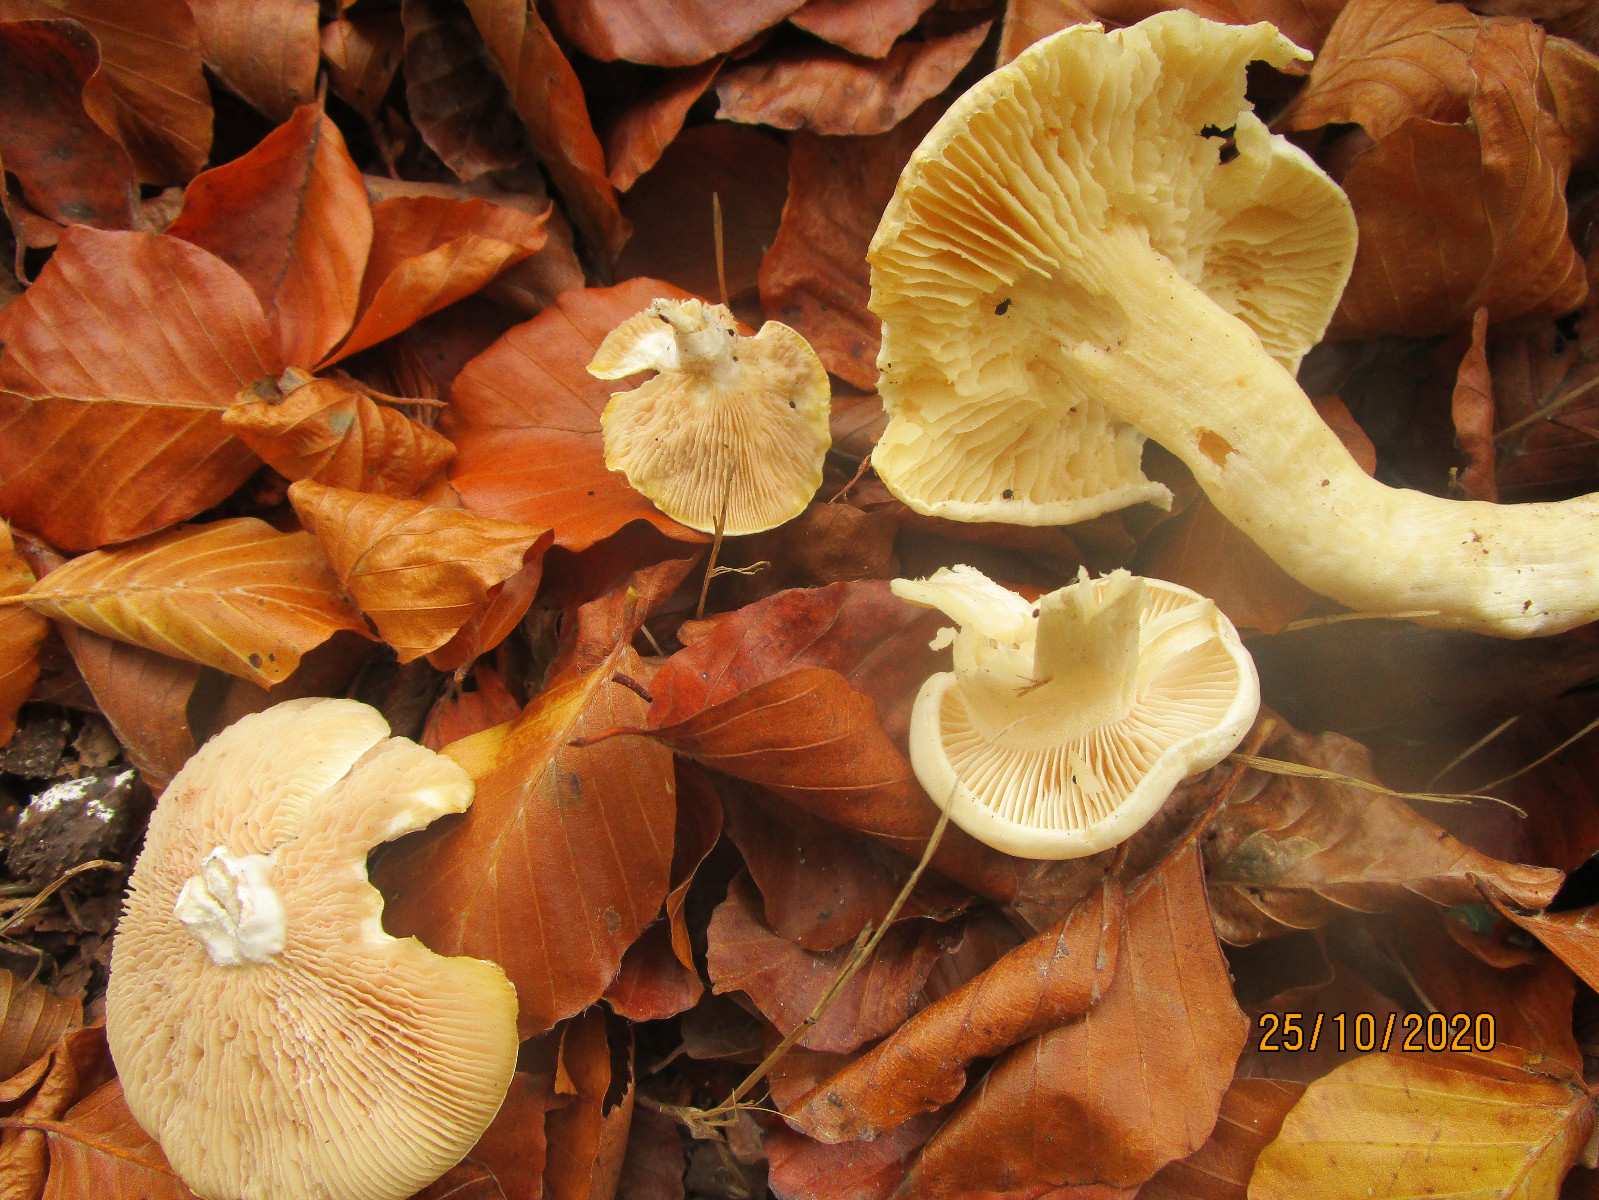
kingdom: Fungi
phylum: Basidiomycota
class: Agaricomycetes
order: Agaricales
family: Entolomataceae
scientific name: Entolomataceae
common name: rødbladfamilien
